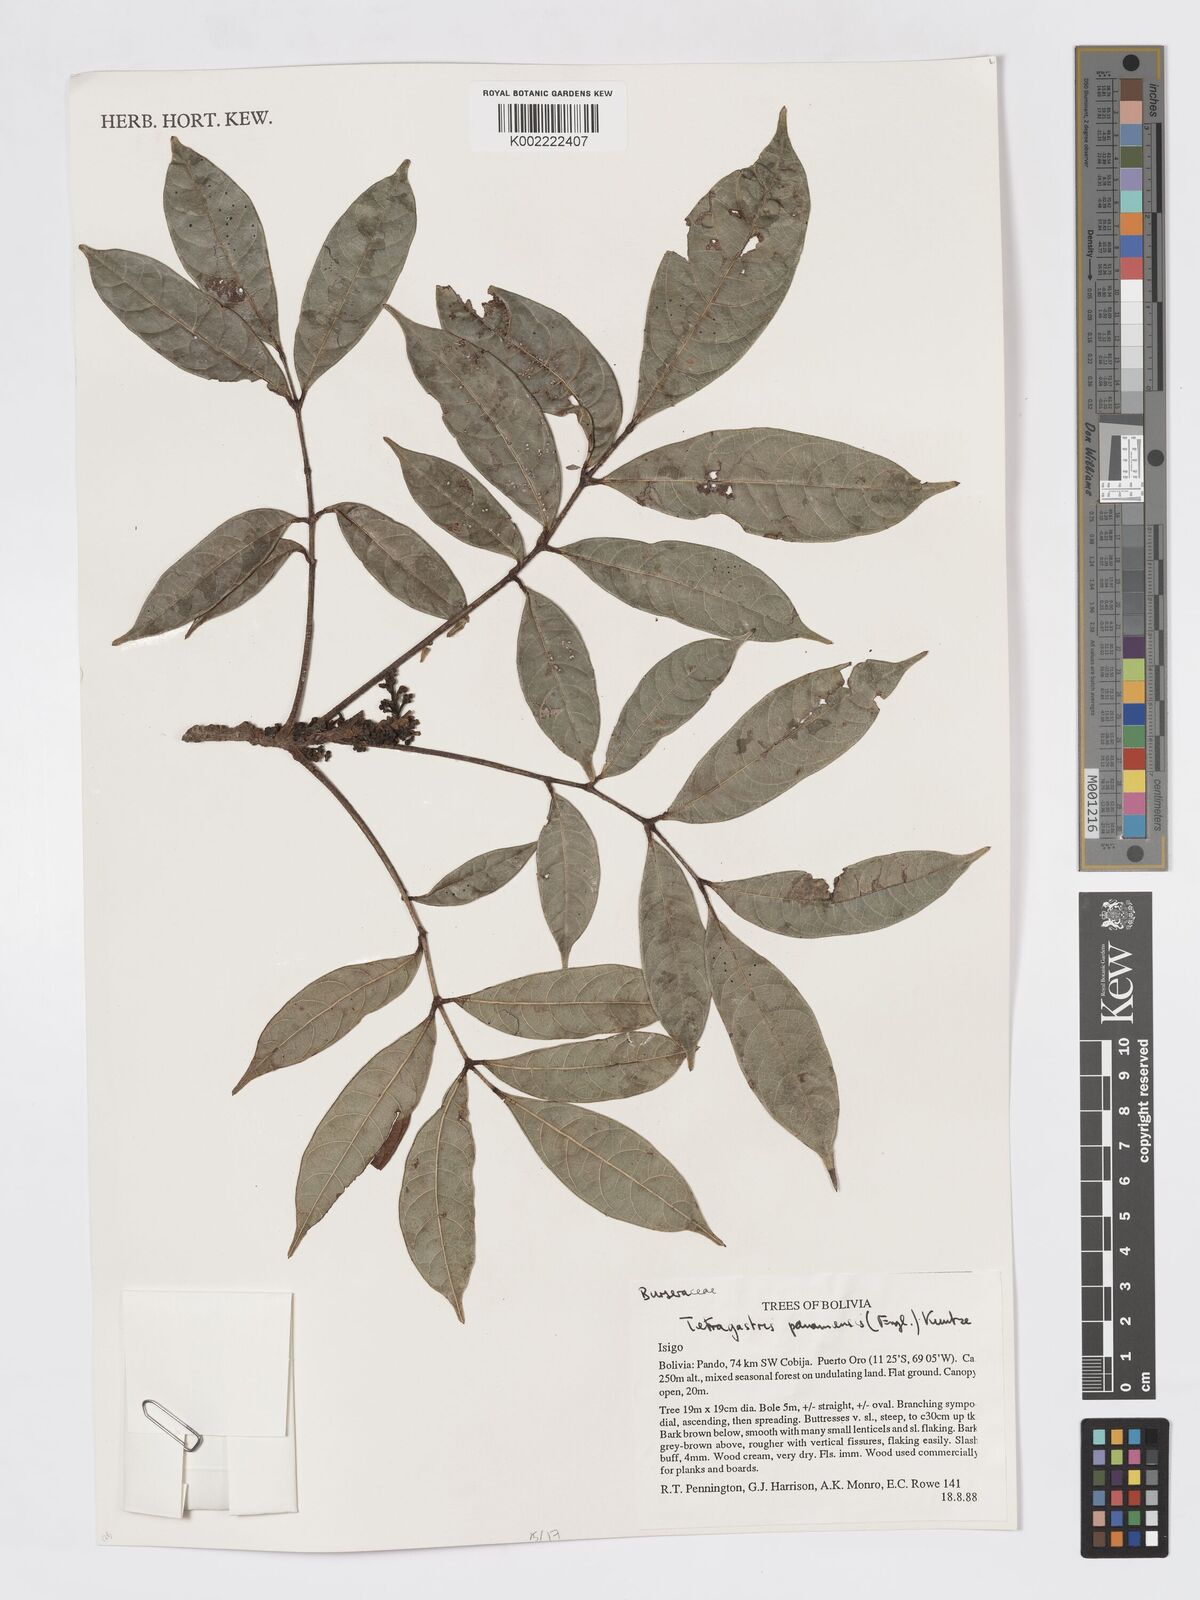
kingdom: Plantae
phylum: Tracheophyta
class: Magnoliopsida
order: Sapindales
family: Burseraceae
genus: Tetragastris
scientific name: Tetragastris panamensis
